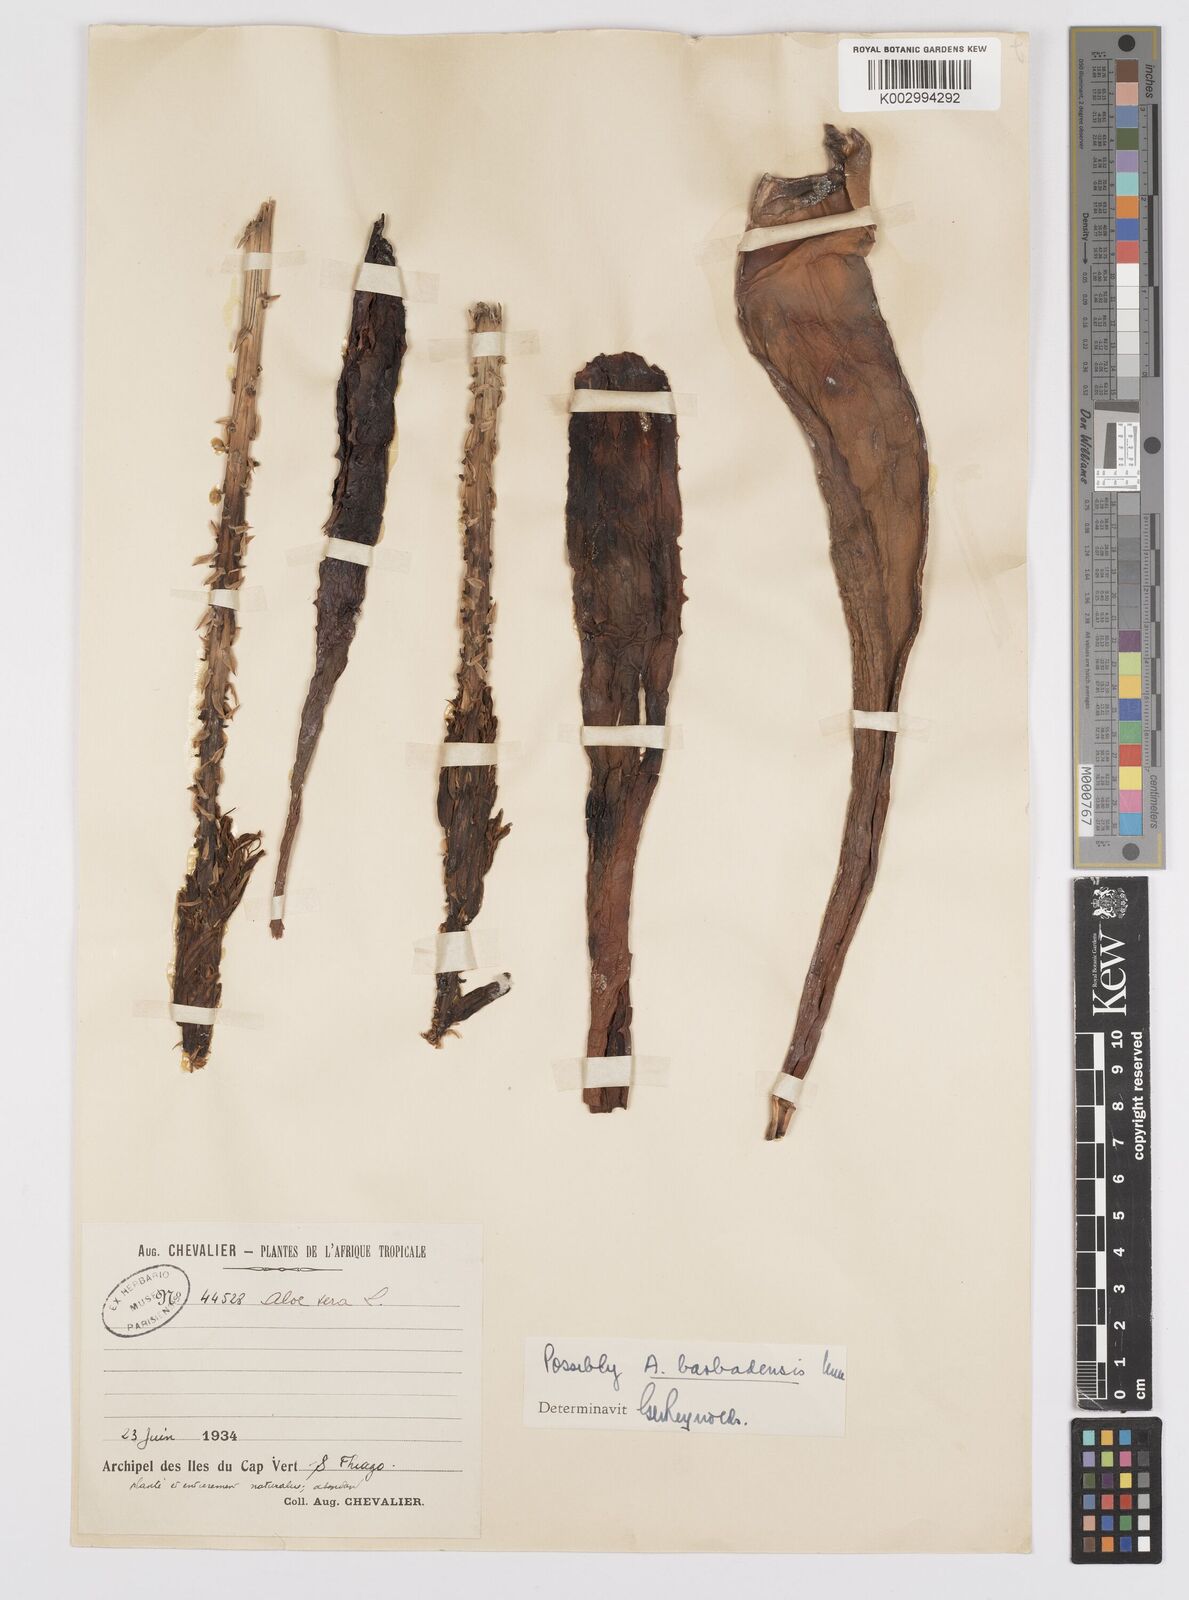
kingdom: Plantae
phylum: Tracheophyta
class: Liliopsida
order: Asparagales
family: Asphodelaceae
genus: Aloe
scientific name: Aloe vera
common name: Barbados aloe
